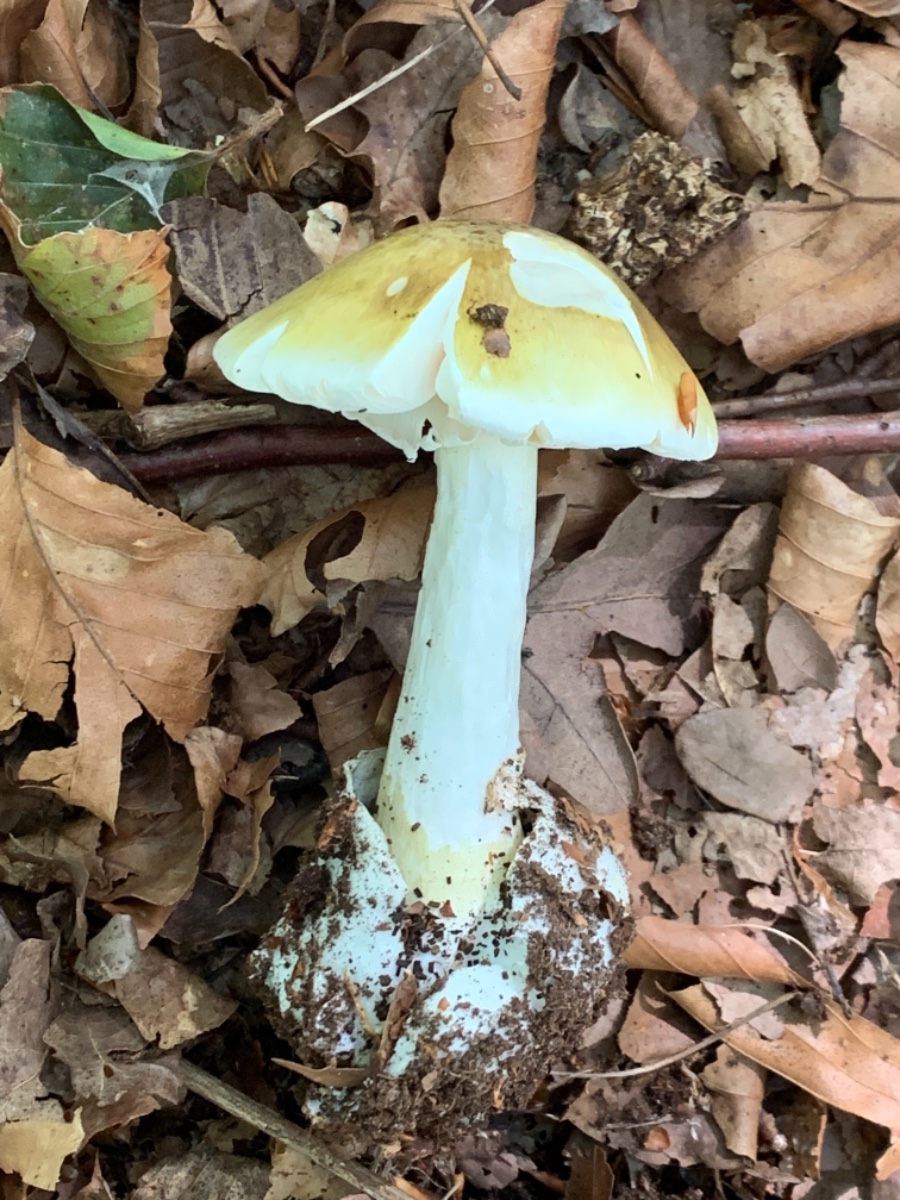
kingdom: Fungi
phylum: Basidiomycota
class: Agaricomycetes
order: Agaricales
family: Amanitaceae
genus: Amanita
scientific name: Amanita phalloides
